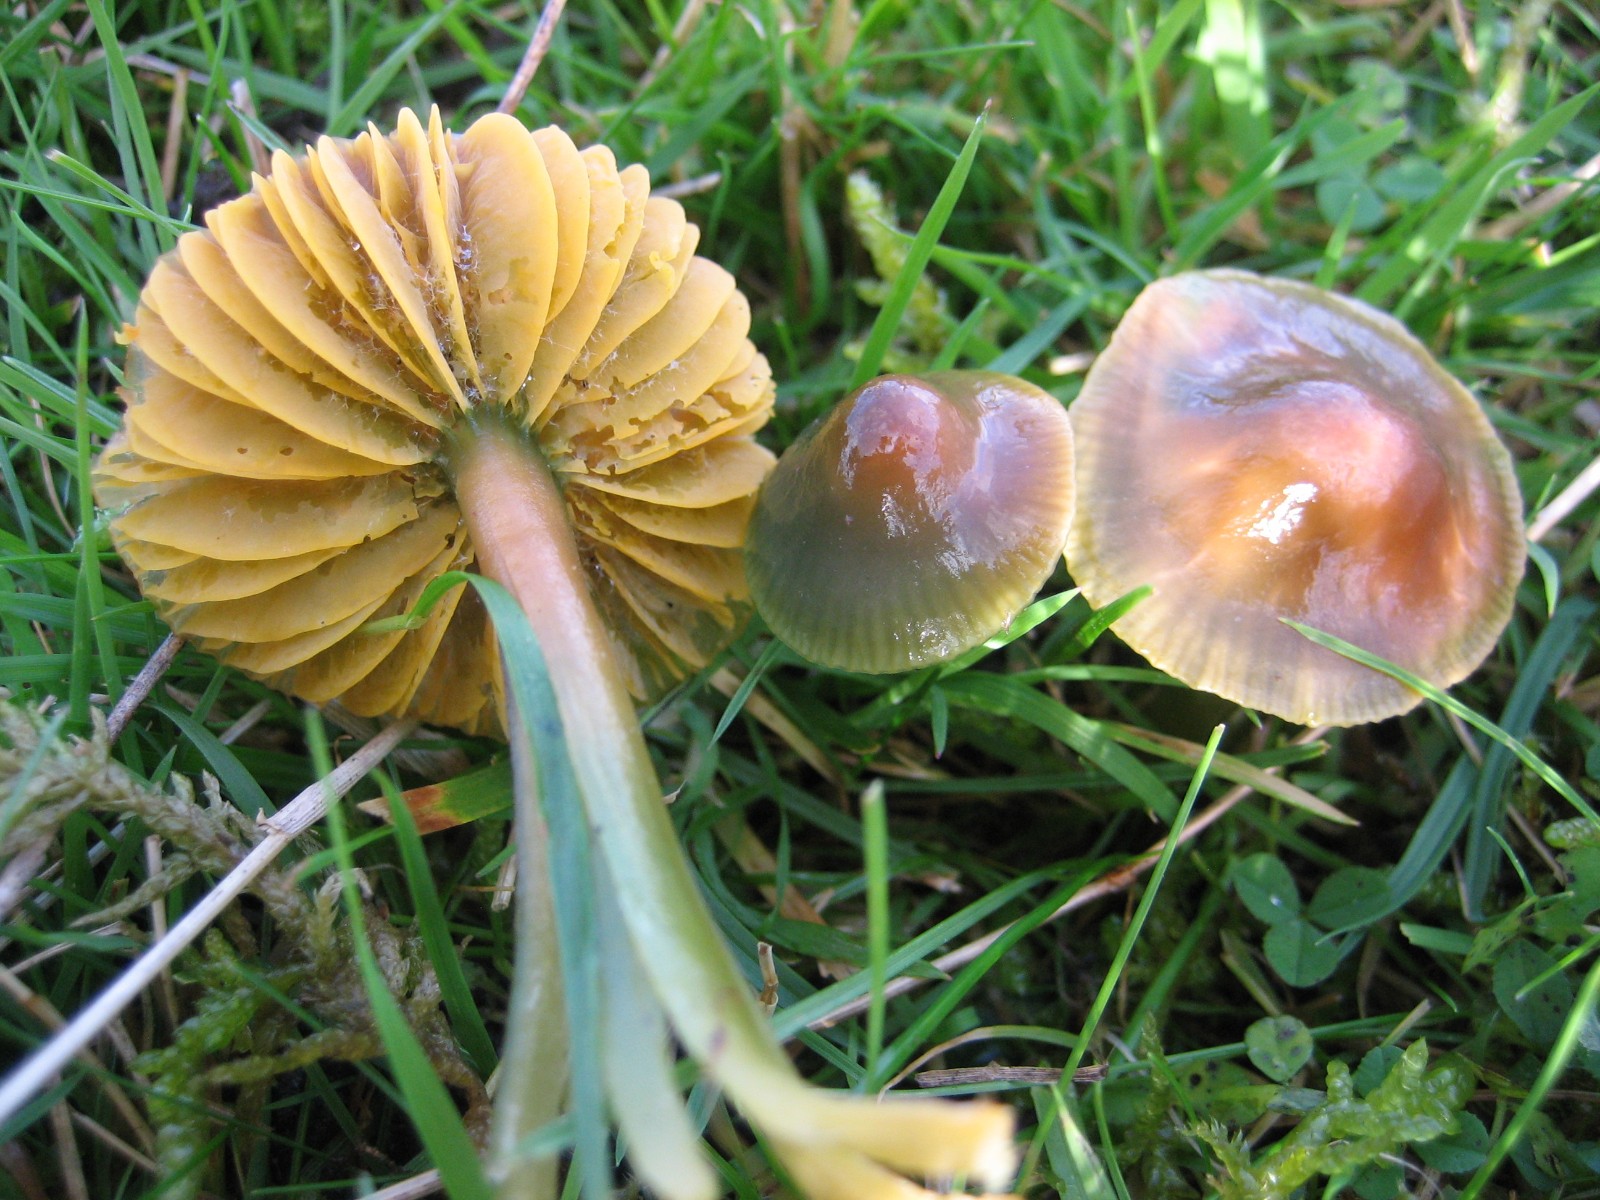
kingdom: Fungi
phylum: Basidiomycota
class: Agaricomycetes
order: Agaricales
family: Hygrophoraceae
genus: Gliophorus
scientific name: Gliophorus psittacinus
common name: papegøje-vokshat
